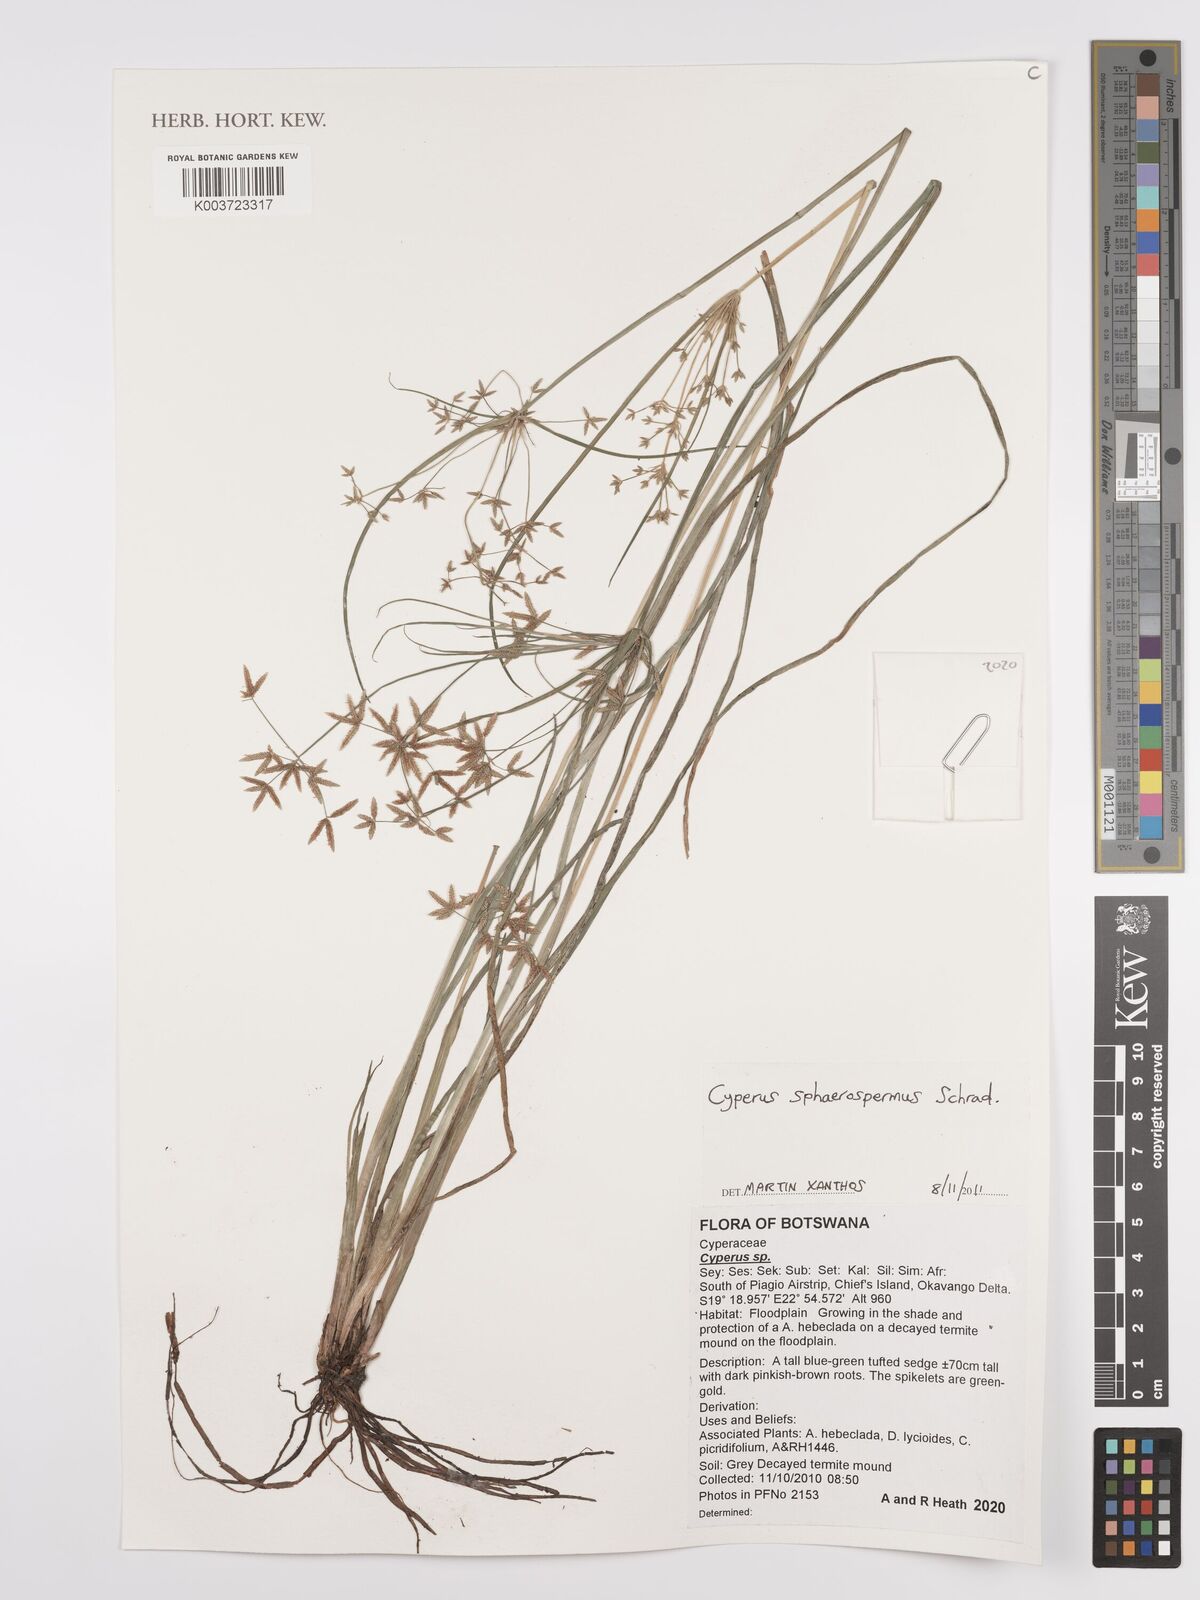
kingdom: Plantae
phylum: Tracheophyta
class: Liliopsida
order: Poales
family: Cyperaceae
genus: Cyperus
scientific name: Cyperus denudatus
